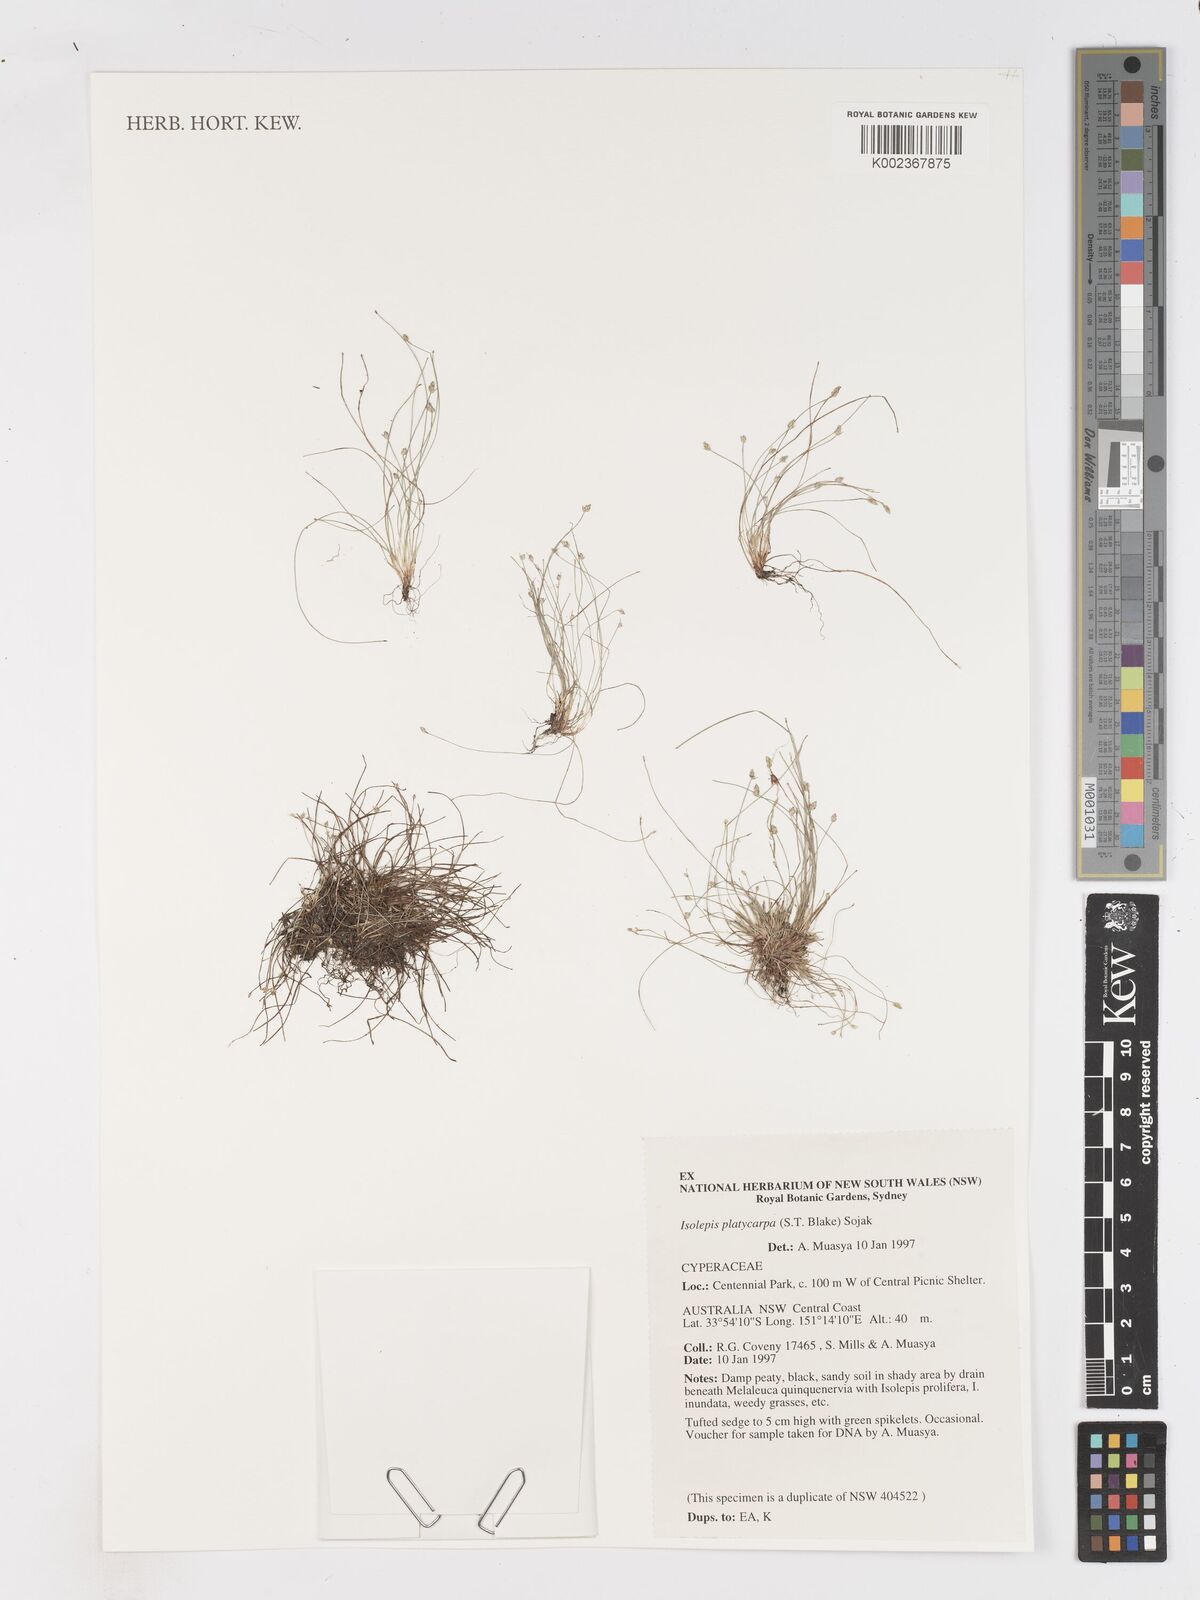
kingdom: Plantae
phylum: Tracheophyta
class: Liliopsida
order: Poales
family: Cyperaceae
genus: Isolepis
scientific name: Isolepis cernua
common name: Slender club-rush
